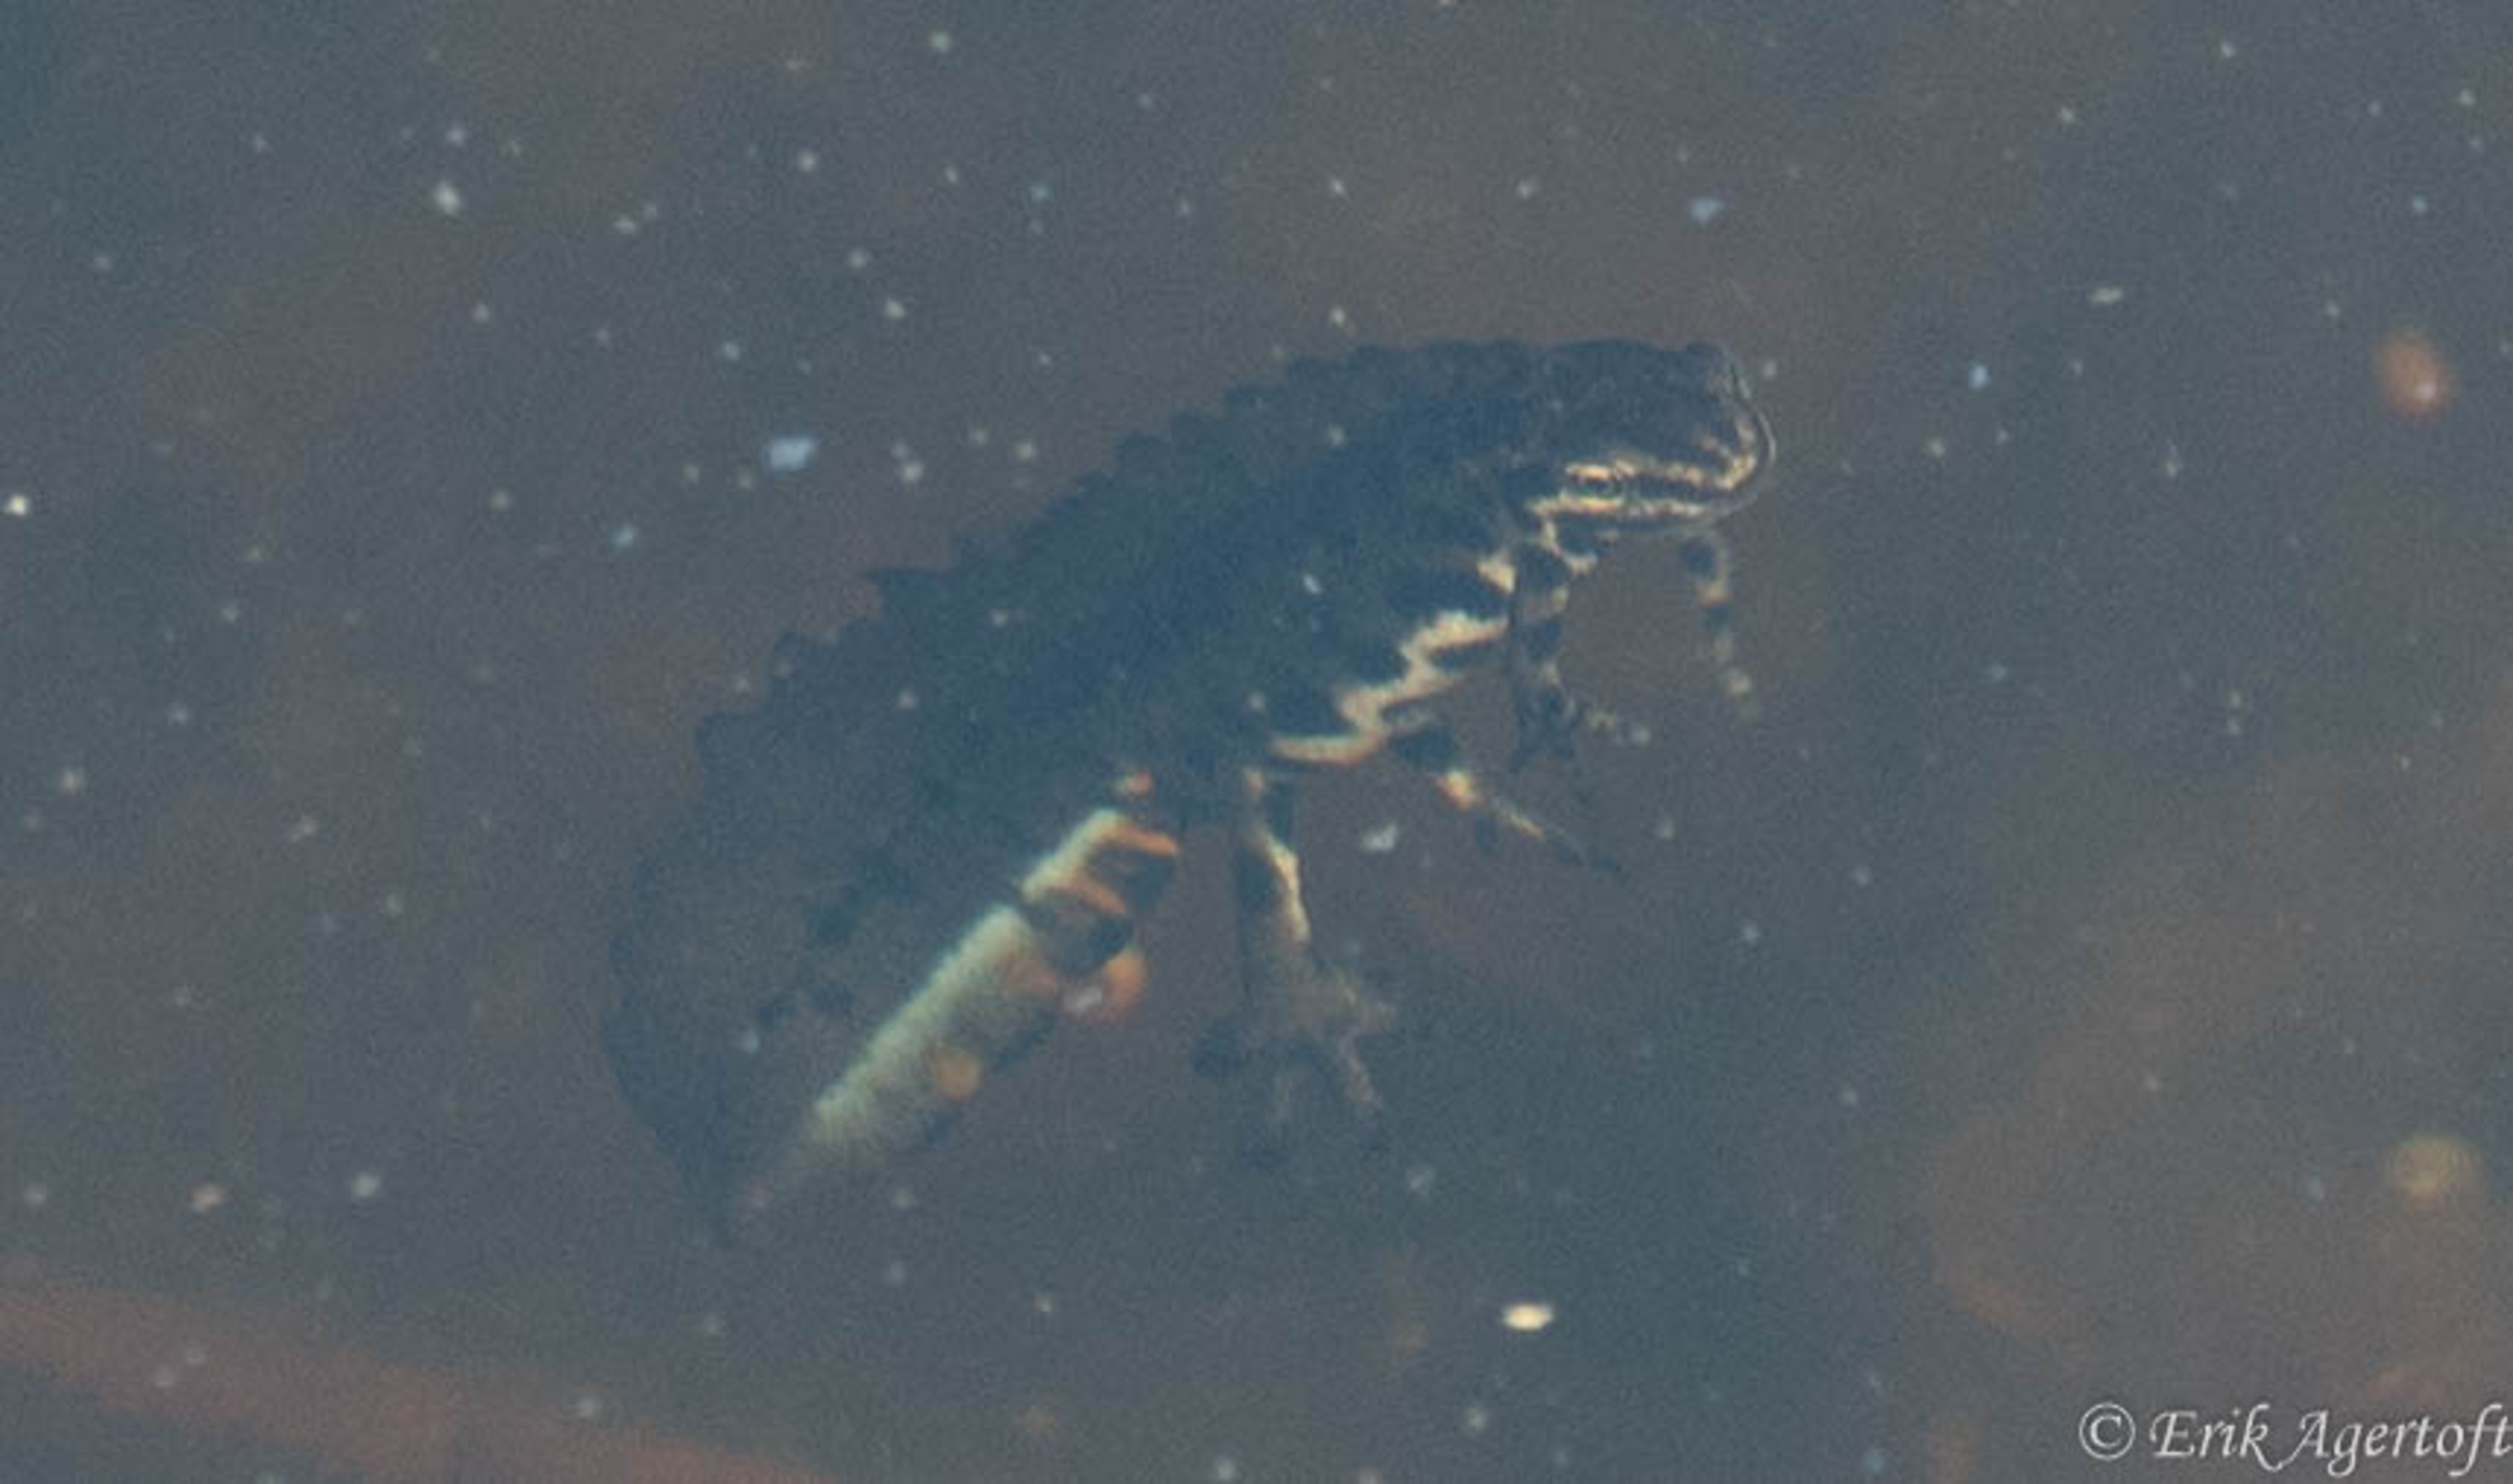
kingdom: Animalia
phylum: Chordata
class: Amphibia
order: Caudata
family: Salamandridae
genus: Lissotriton
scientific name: Lissotriton vulgaris
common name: Lille vandsalamander
